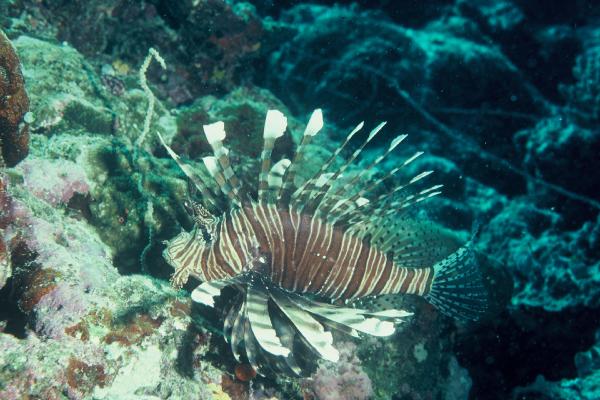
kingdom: Animalia
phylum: Chordata
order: Scorpaeniformes
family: Scorpaenidae
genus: Pterois
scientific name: Pterois miles
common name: Devil firefish
